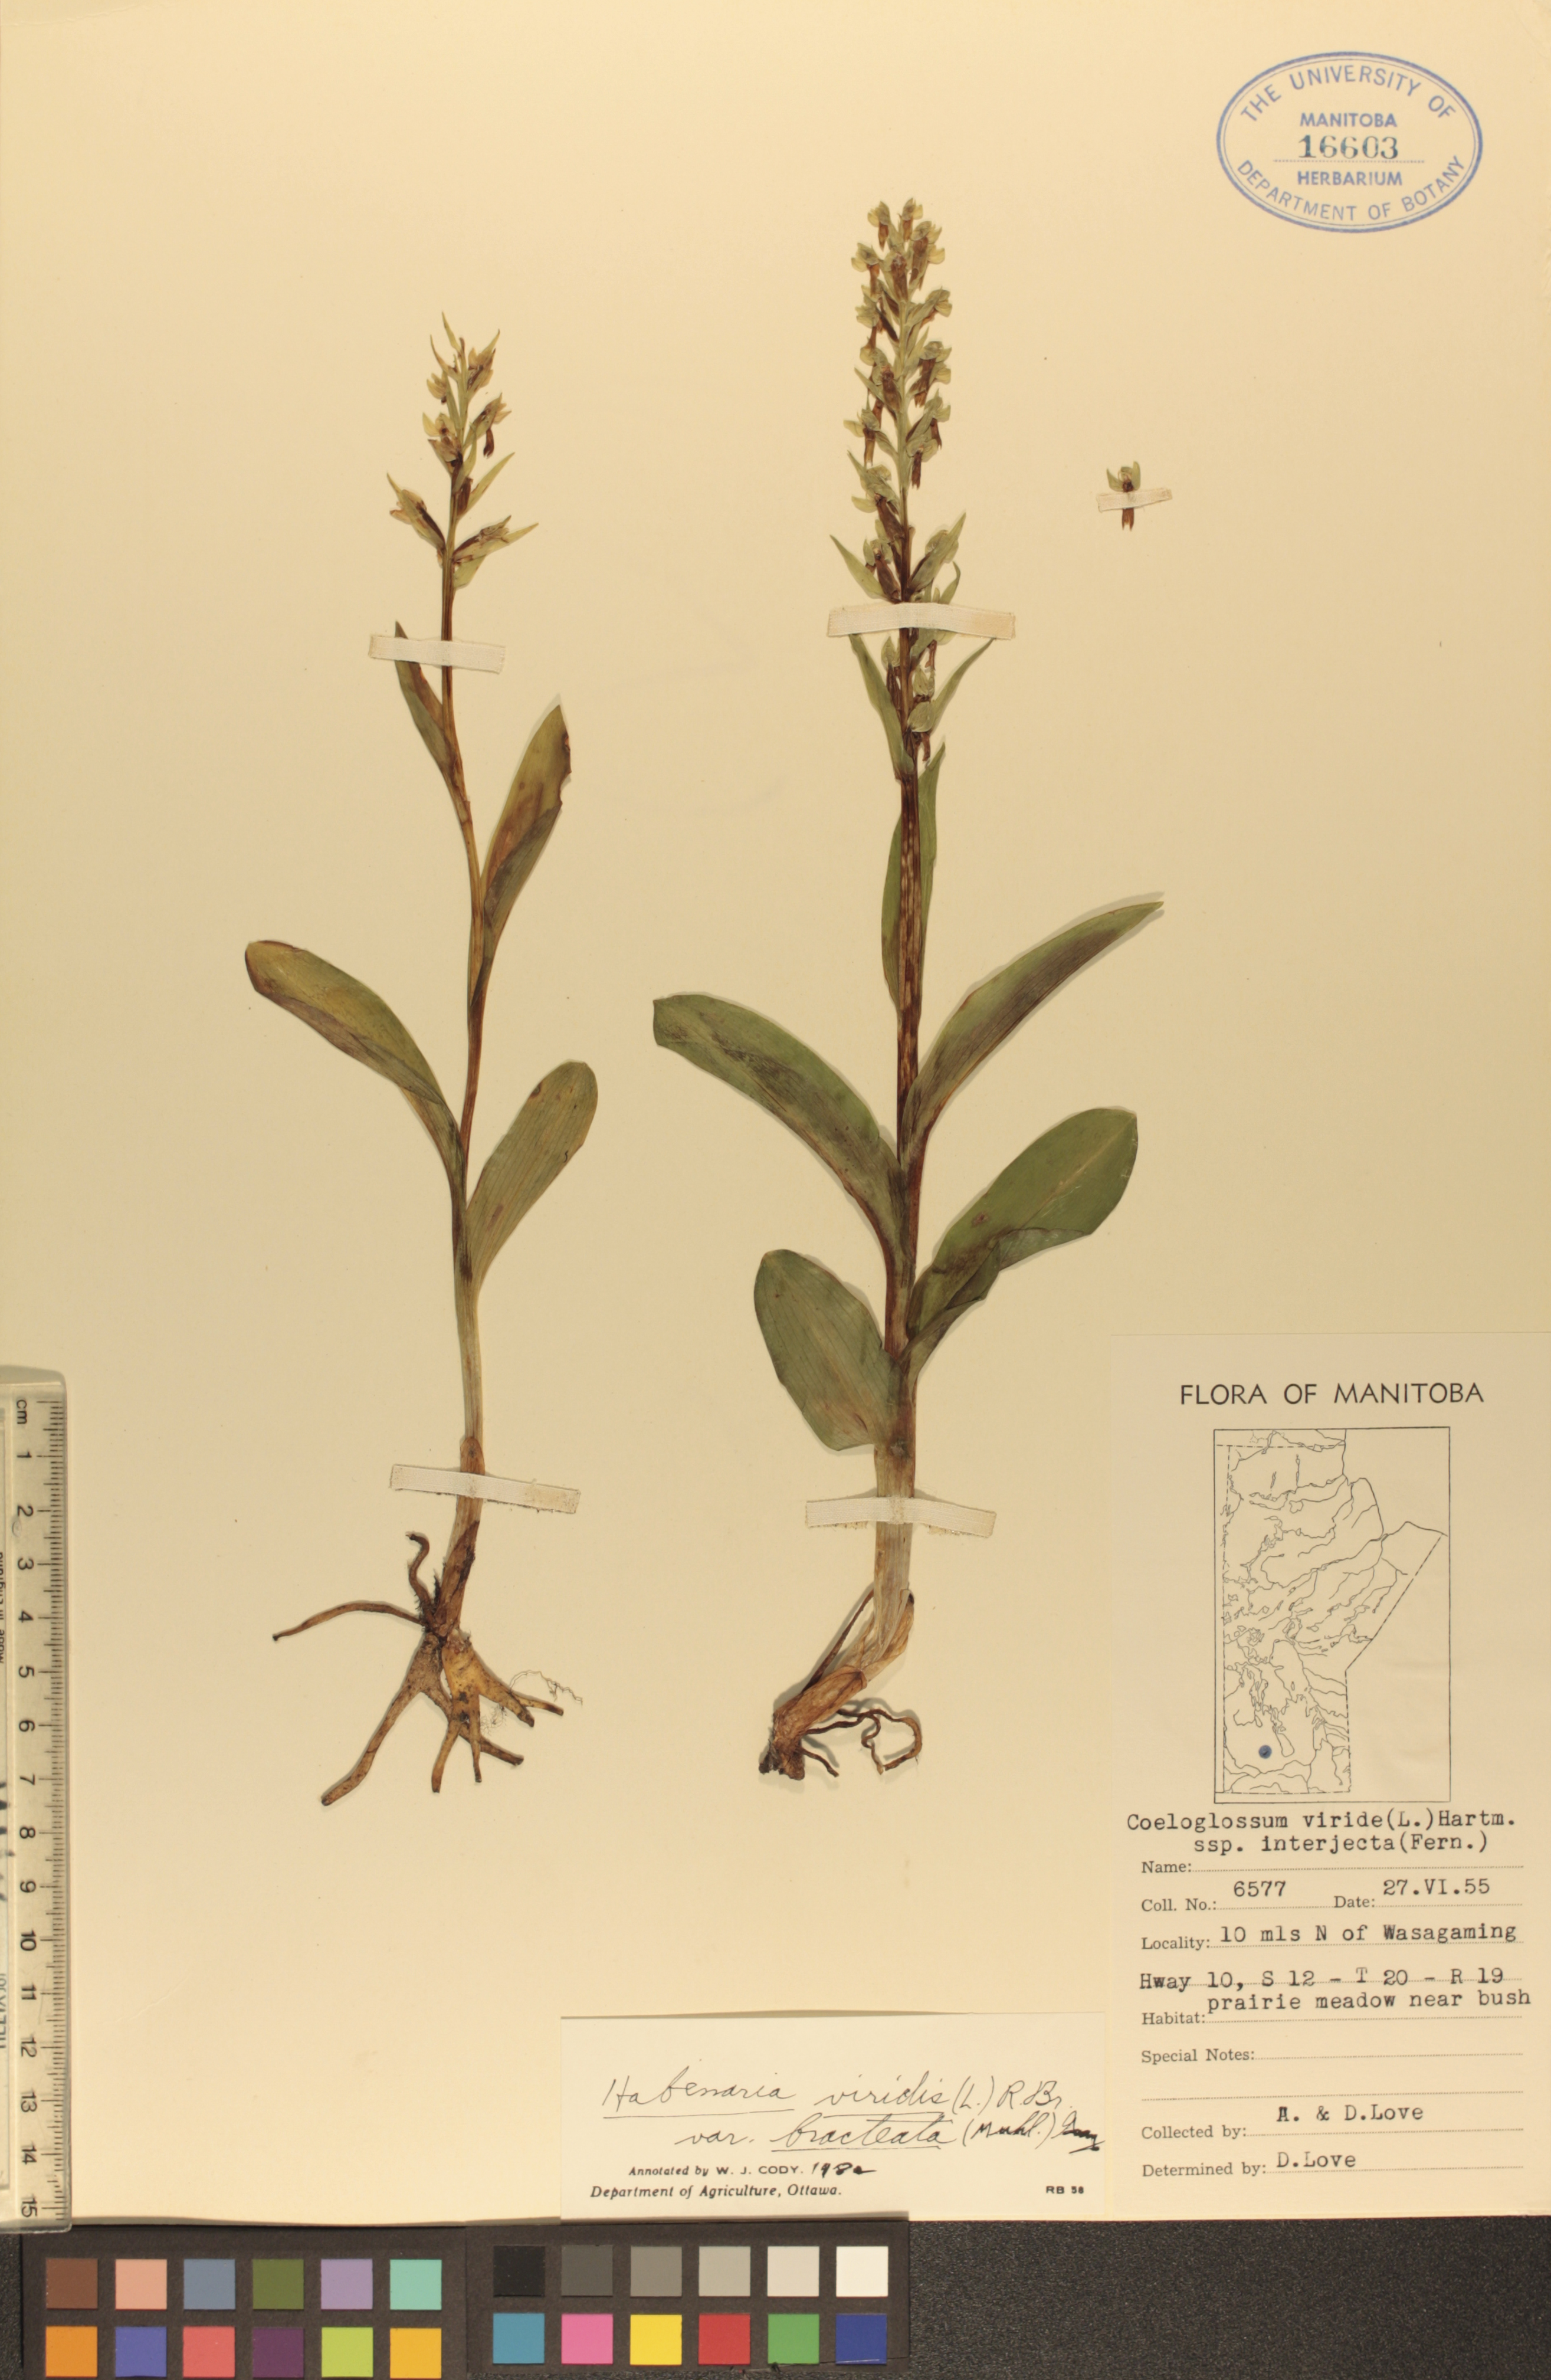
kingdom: Plantae
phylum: Tracheophyta
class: Liliopsida
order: Asparagales
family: Orchidaceae
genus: Dactylorhiza
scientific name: Dactylorhiza viridis
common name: Longbract frog orchid
